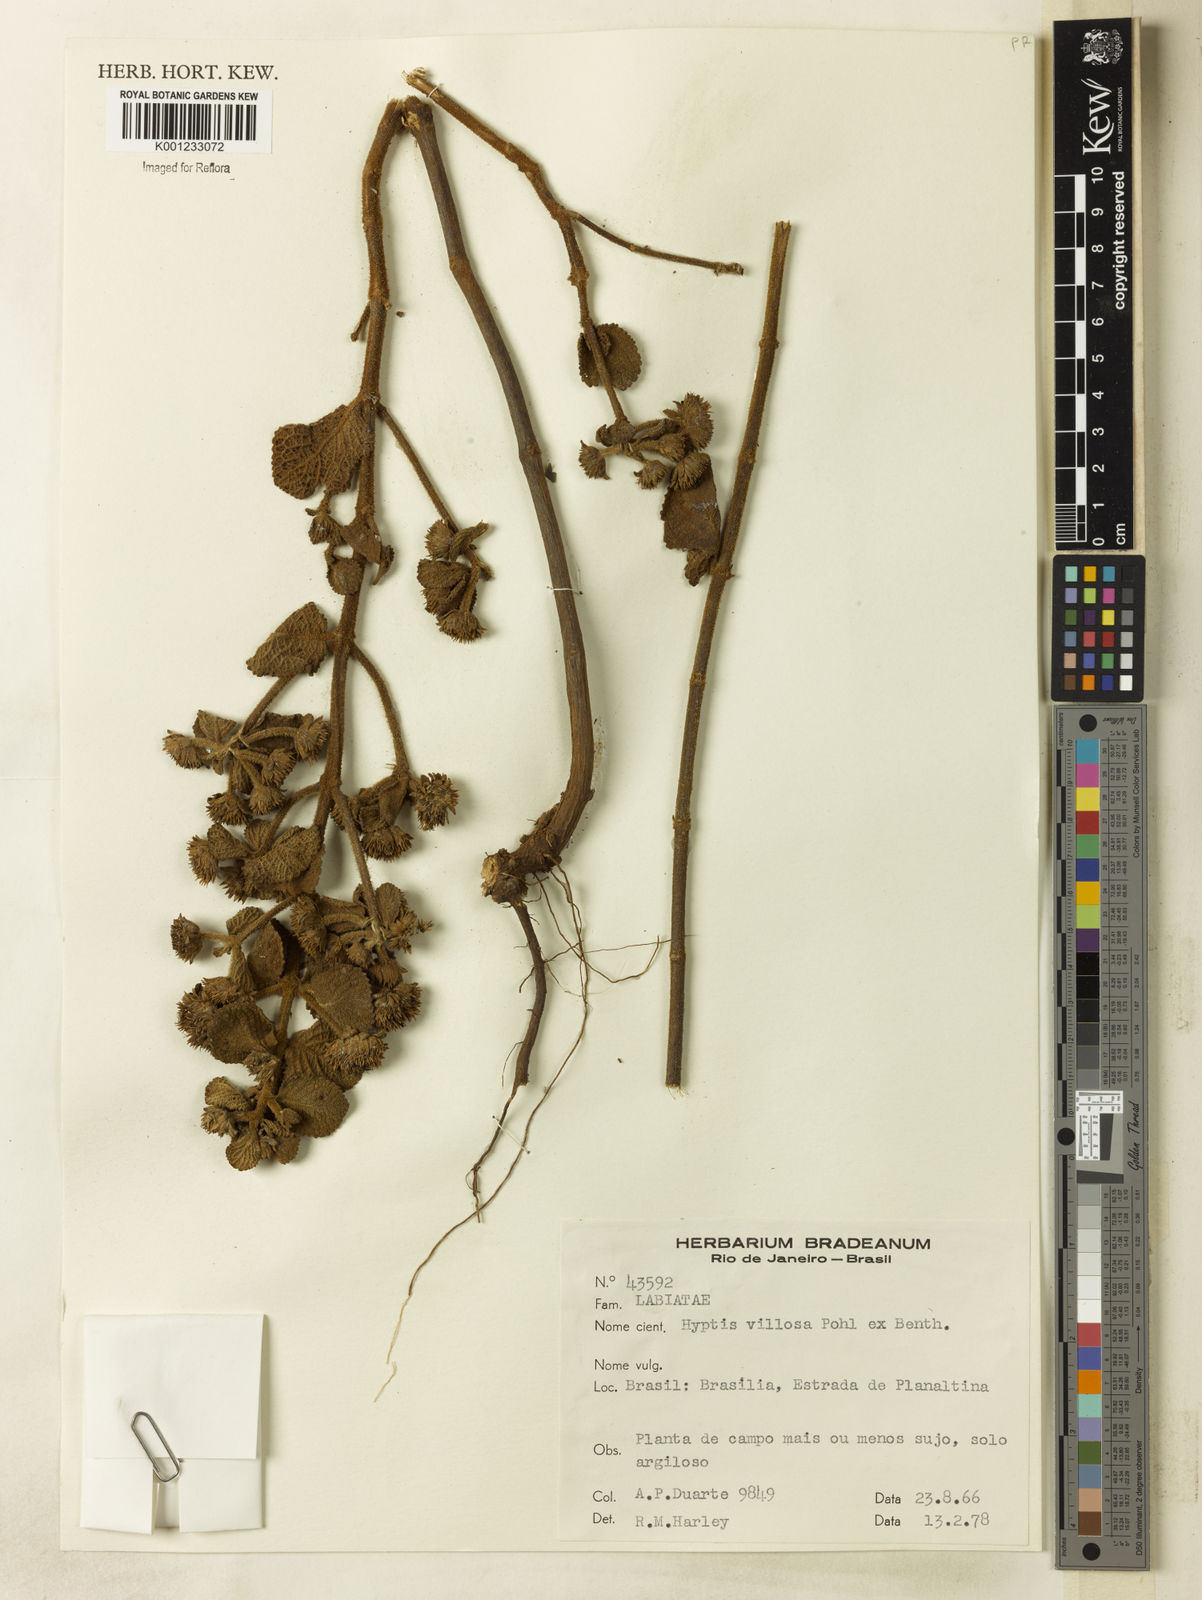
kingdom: Plantae
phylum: Tracheophyta
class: Magnoliopsida
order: Lamiales
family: Lamiaceae
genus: Hyptis
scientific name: Hyptis villosa
